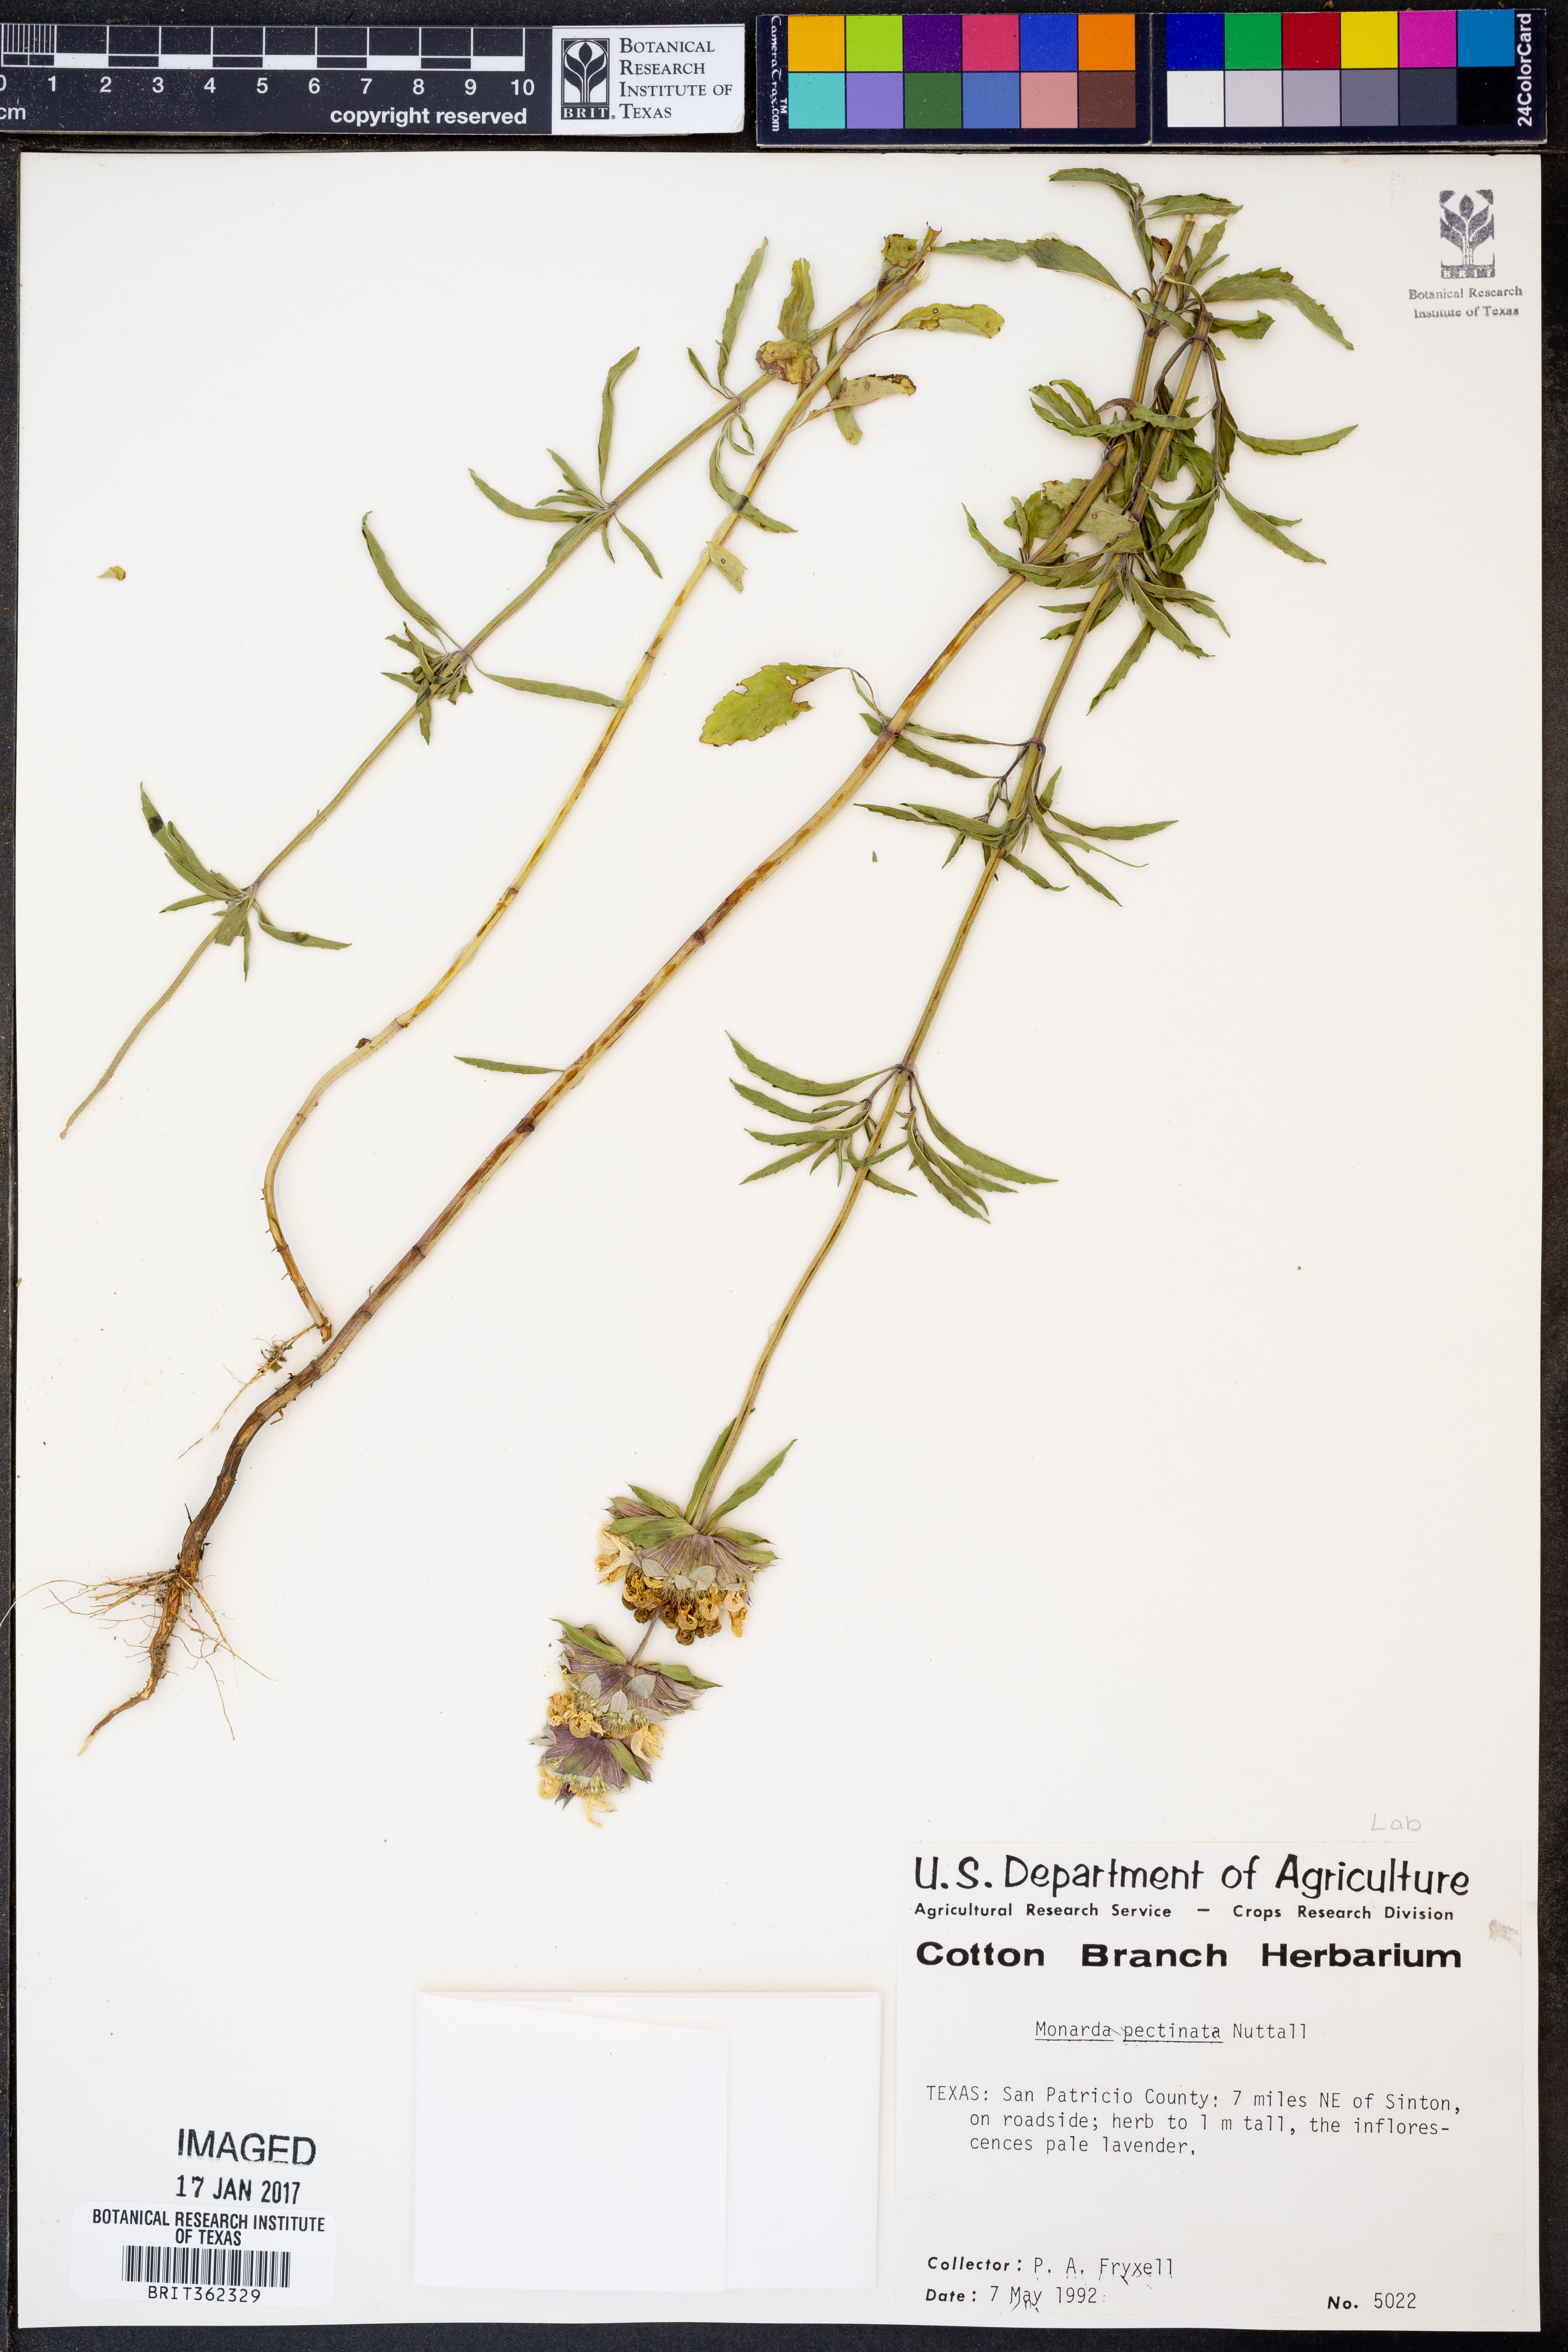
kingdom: Plantae
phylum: Tracheophyta
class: Magnoliopsida
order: Lamiales
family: Lamiaceae
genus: Monarda
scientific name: Monarda pectinata
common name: Plains beebalm
